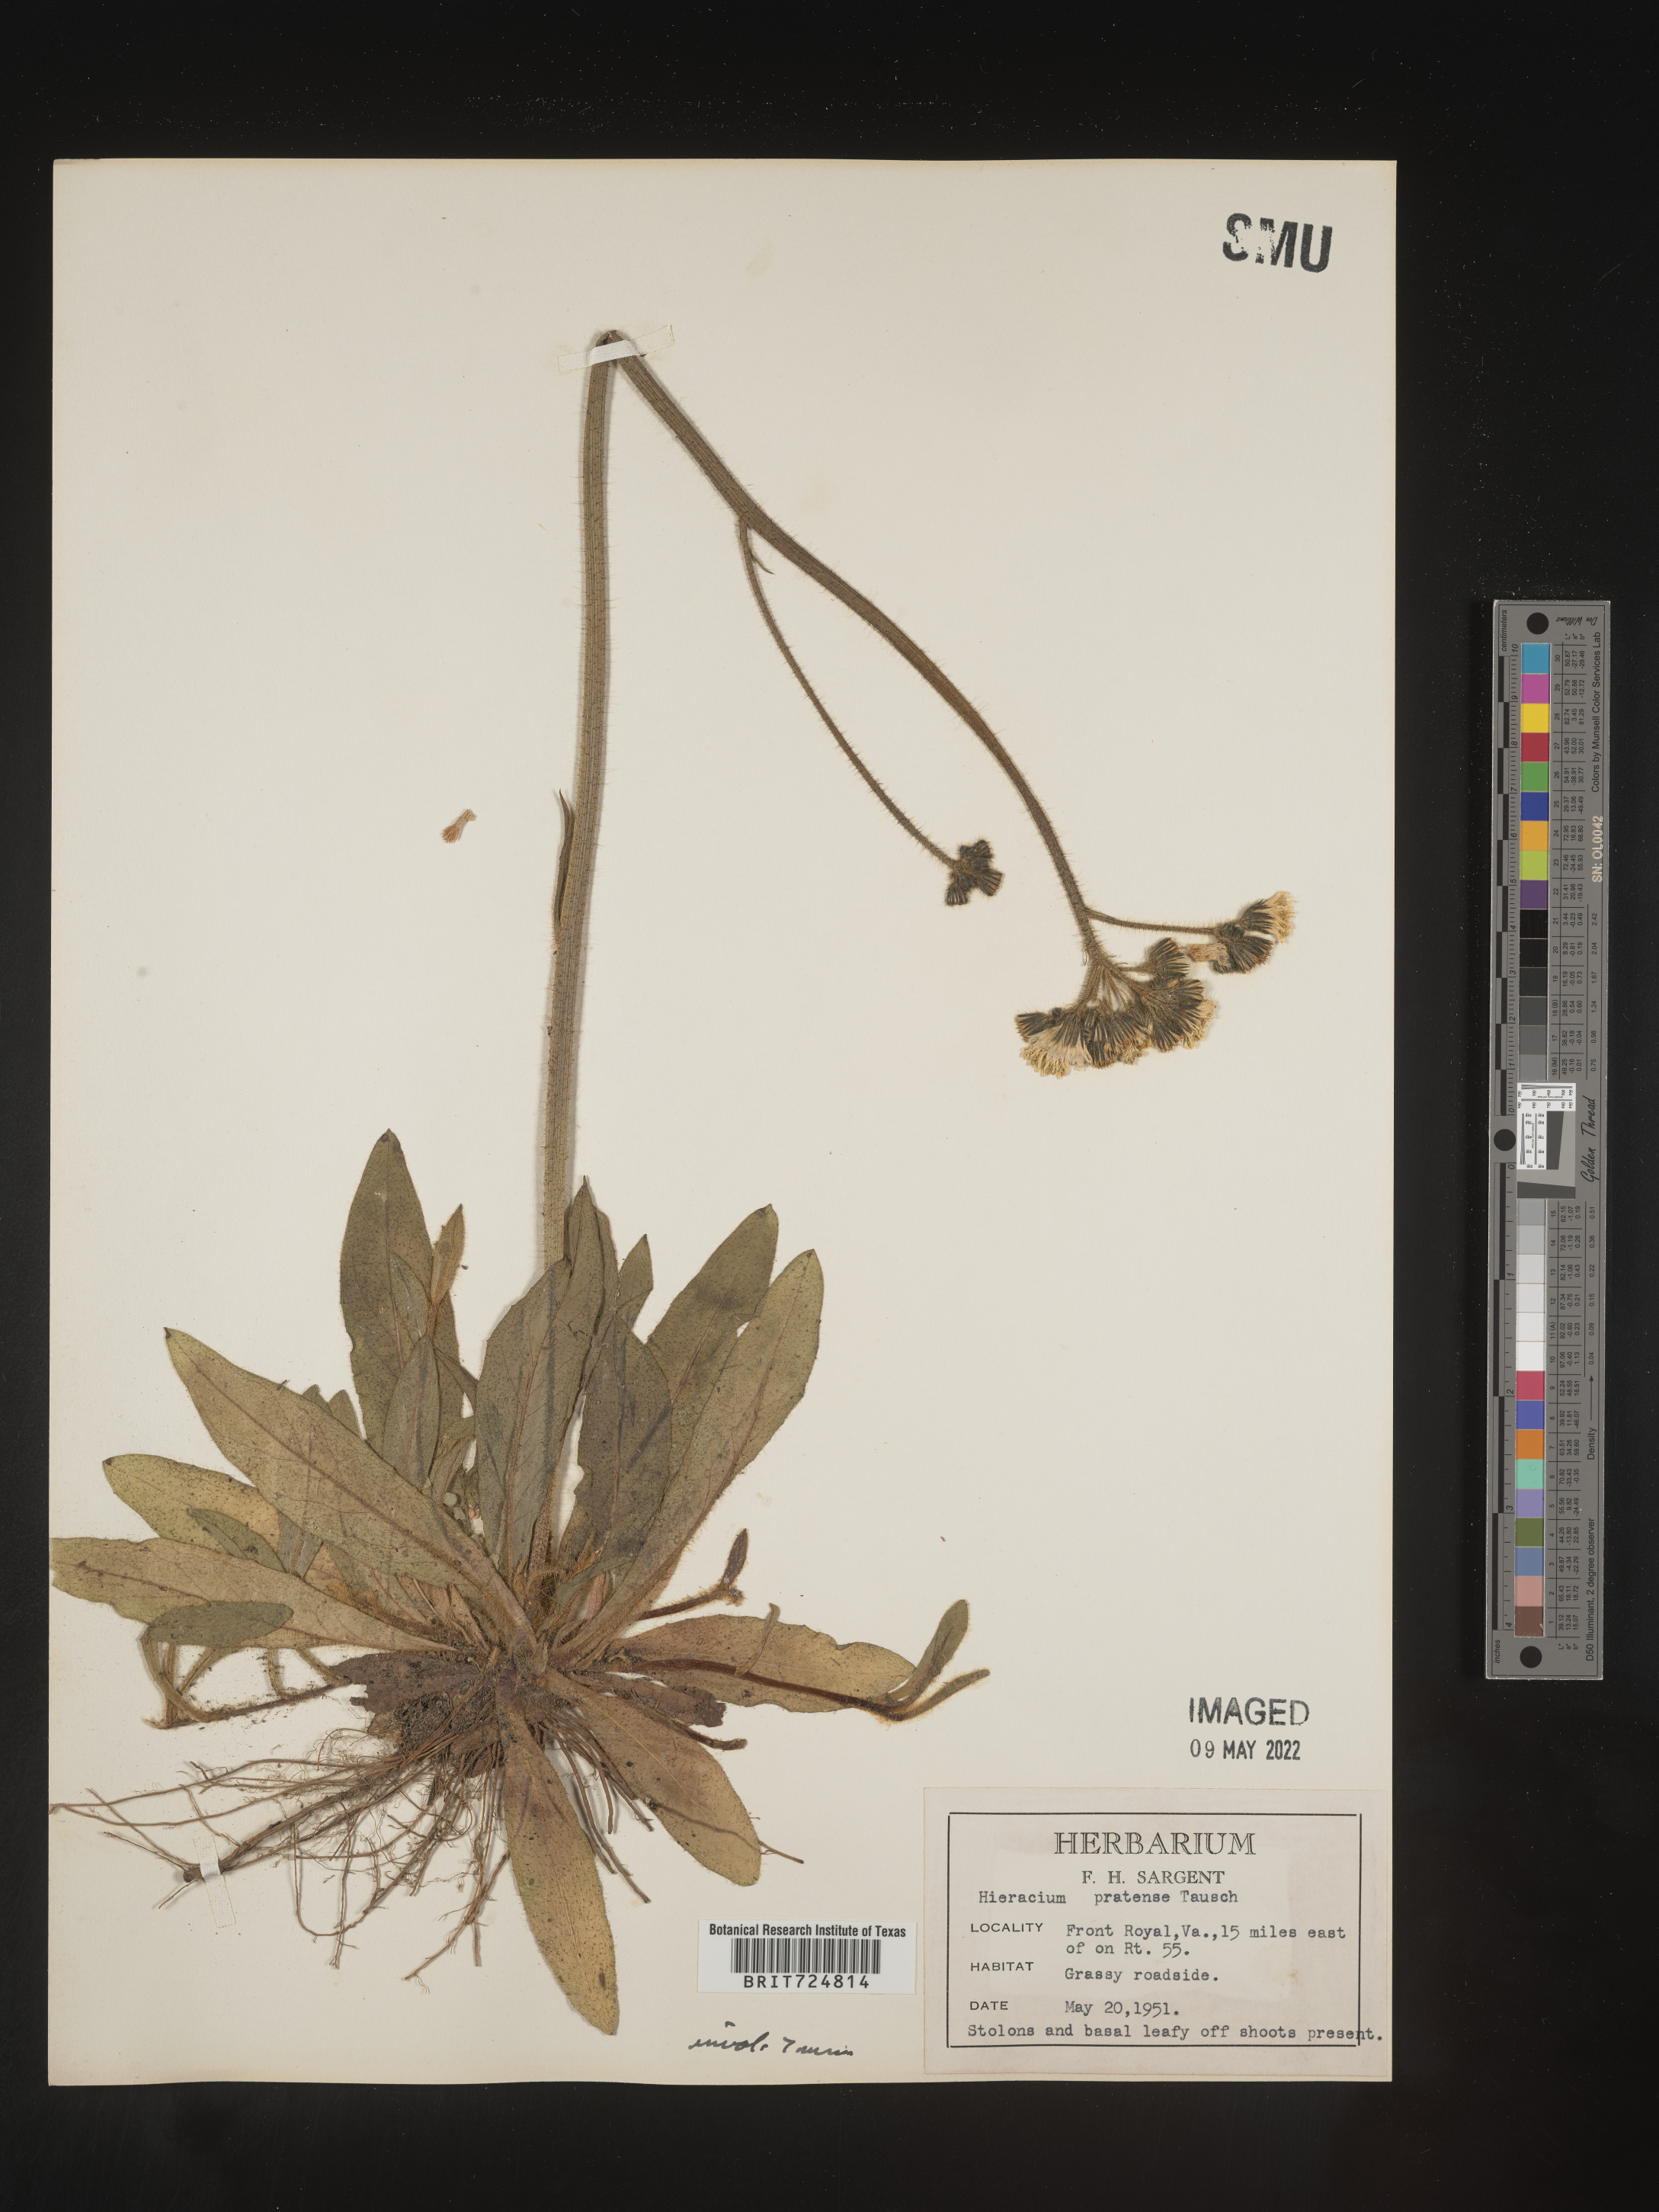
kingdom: Plantae
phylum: Tracheophyta
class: Magnoliopsida
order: Asterales
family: Asteraceae
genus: Hieracium
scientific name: Hieracium
